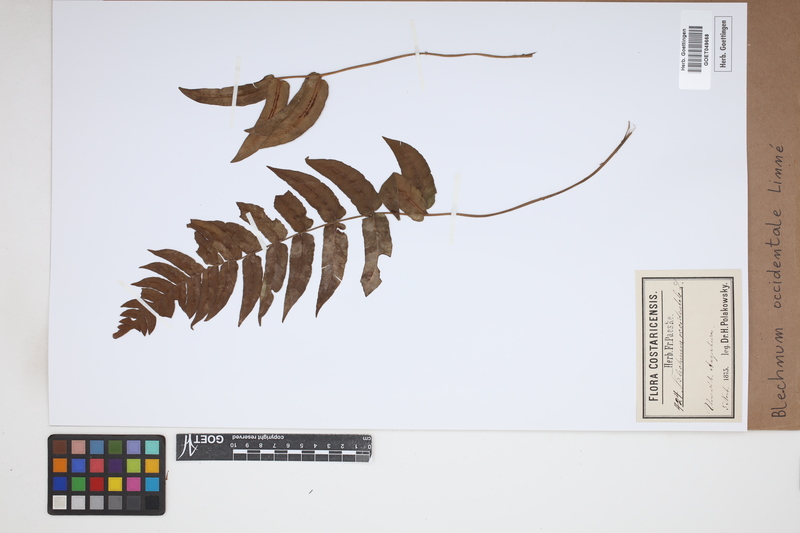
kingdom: Plantae
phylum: Tracheophyta
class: Polypodiopsida
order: Polypodiales
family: Blechnaceae
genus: Blechnum
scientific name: Blechnum occidentale
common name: Hammock fern
